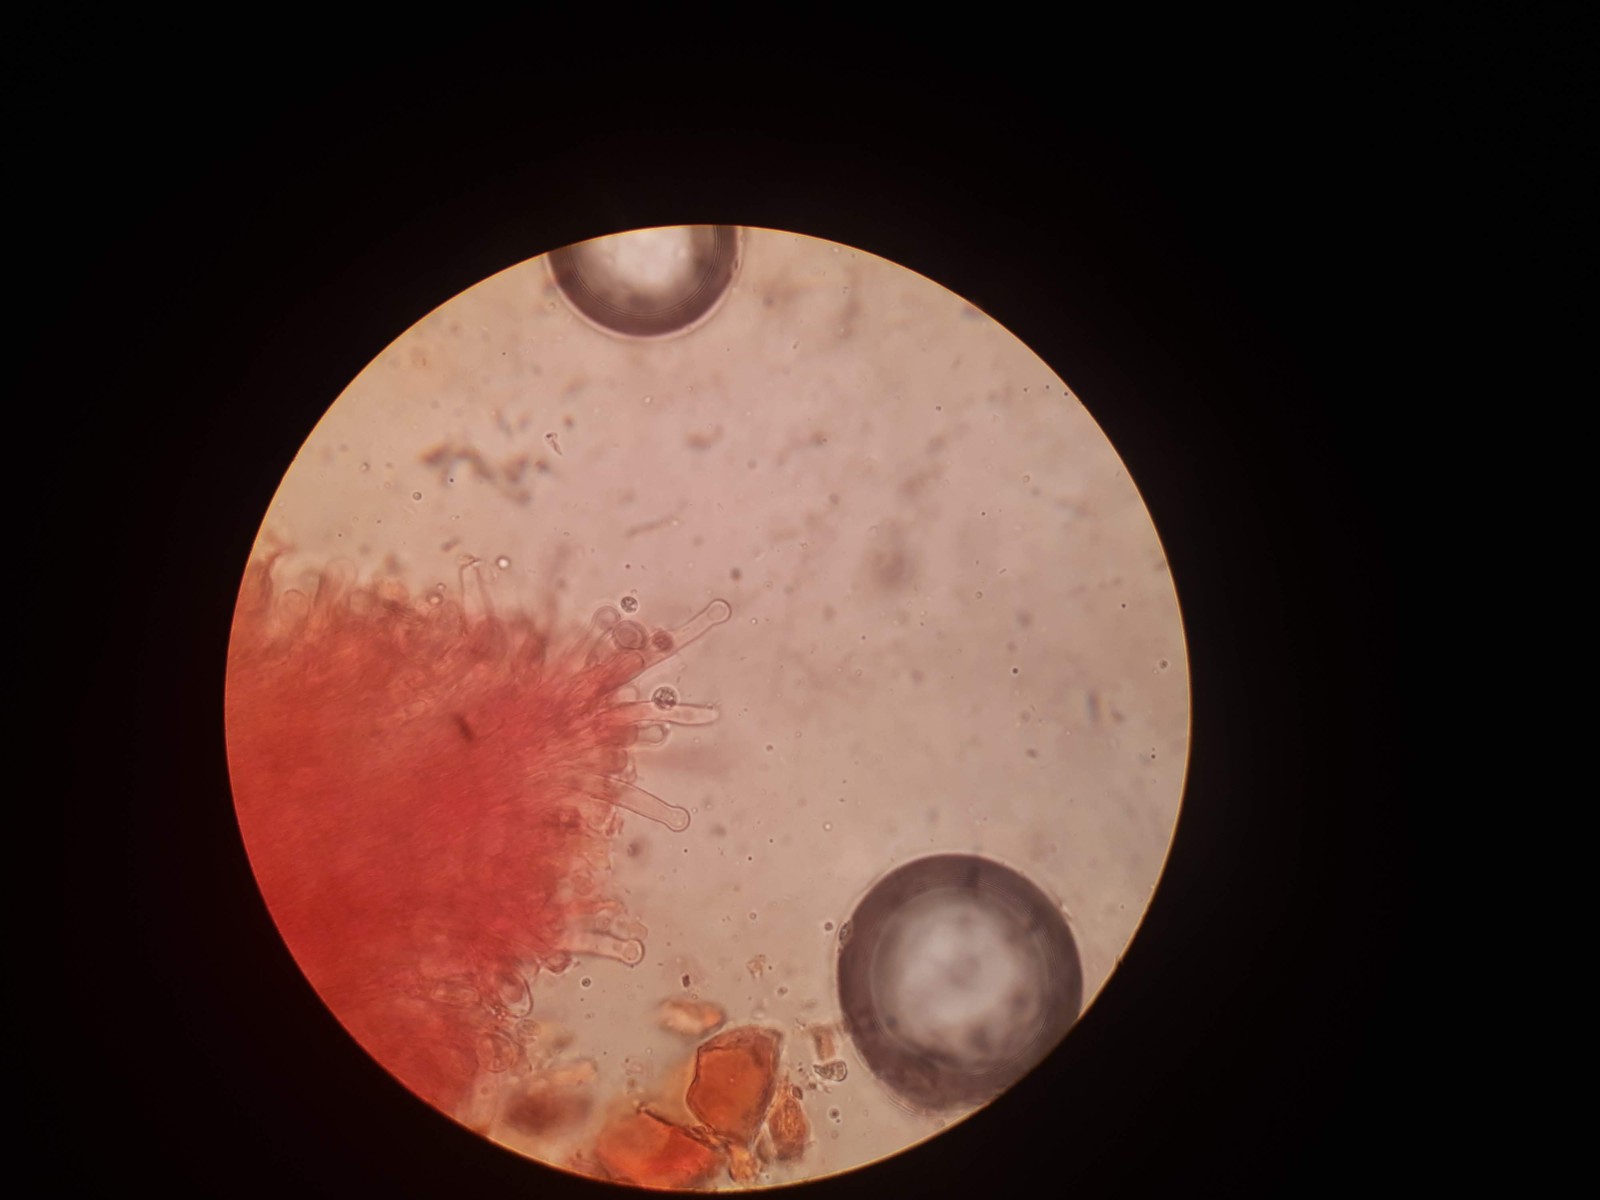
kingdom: Fungi
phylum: Basidiomycota
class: Agaricomycetes
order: Hymenochaetales
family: Hyphodontiaceae
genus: Hyphodontia
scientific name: Hyphodontia arguta
